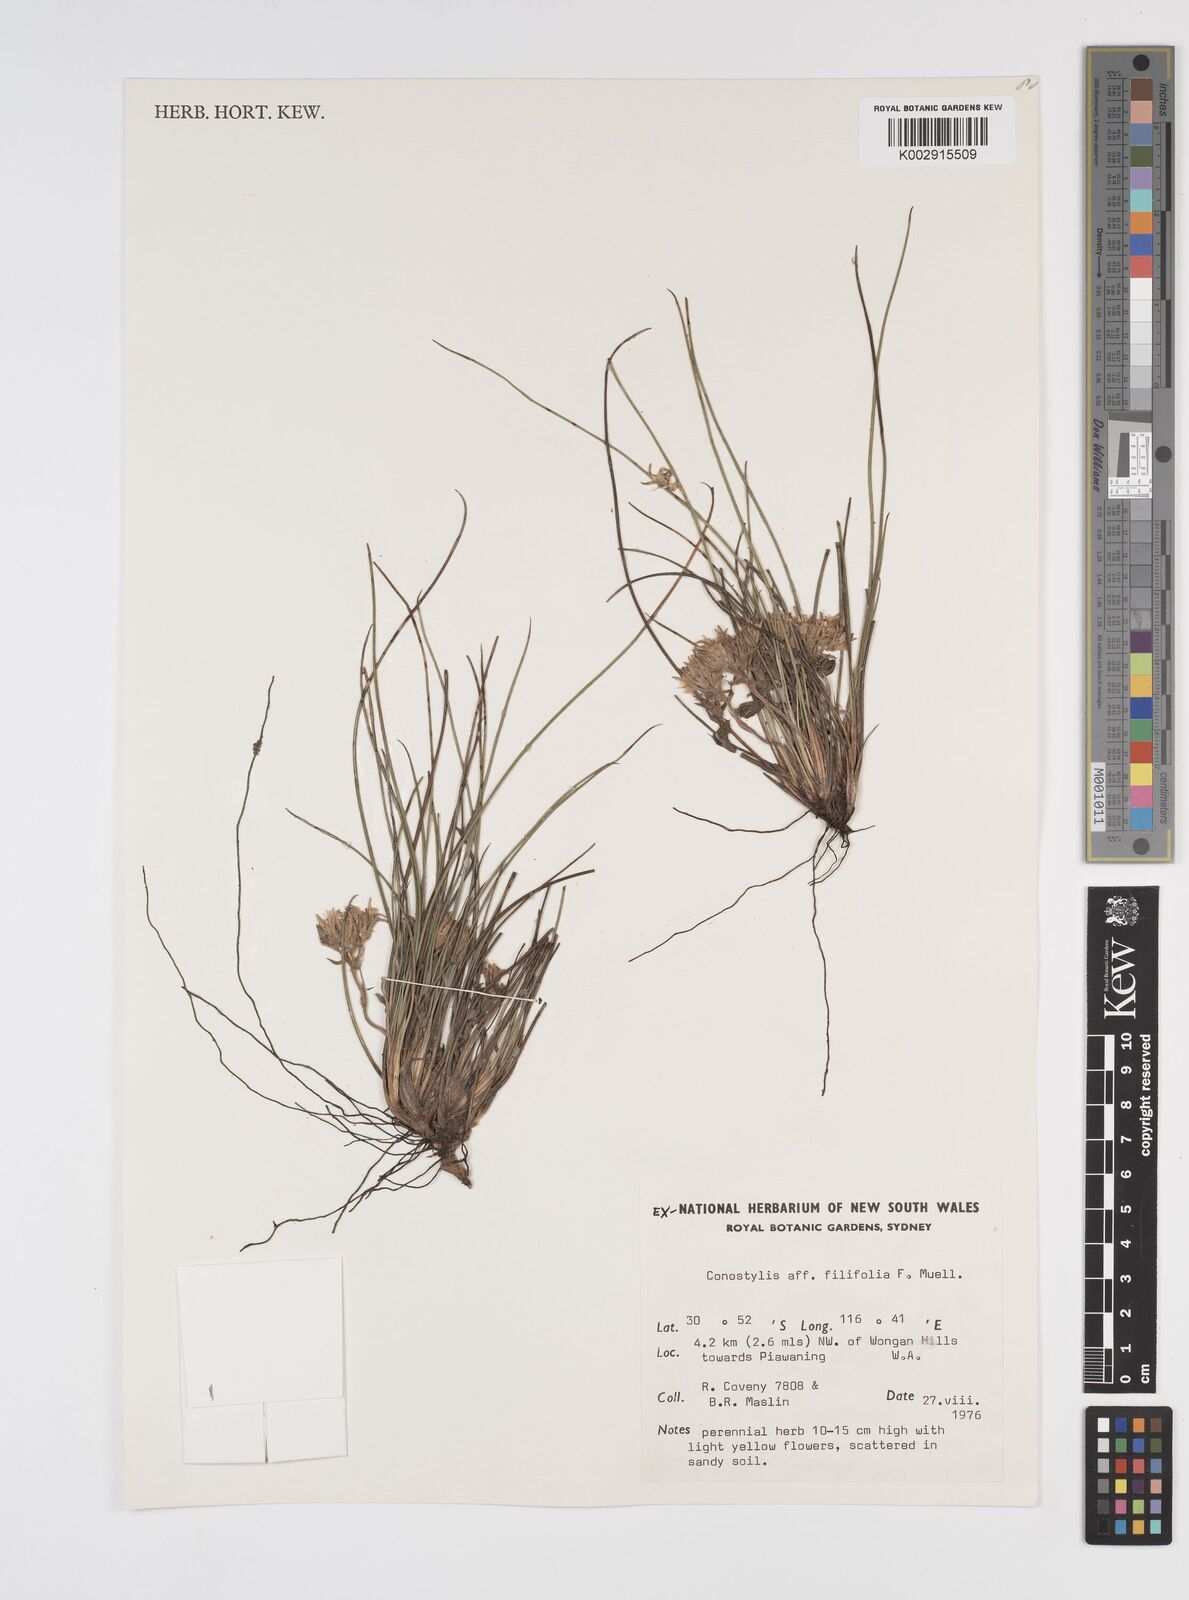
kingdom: Plantae
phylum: Tracheophyta
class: Liliopsida
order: Commelinales
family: Haemodoraceae
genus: Conostylis
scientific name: Conostylis festucacea
